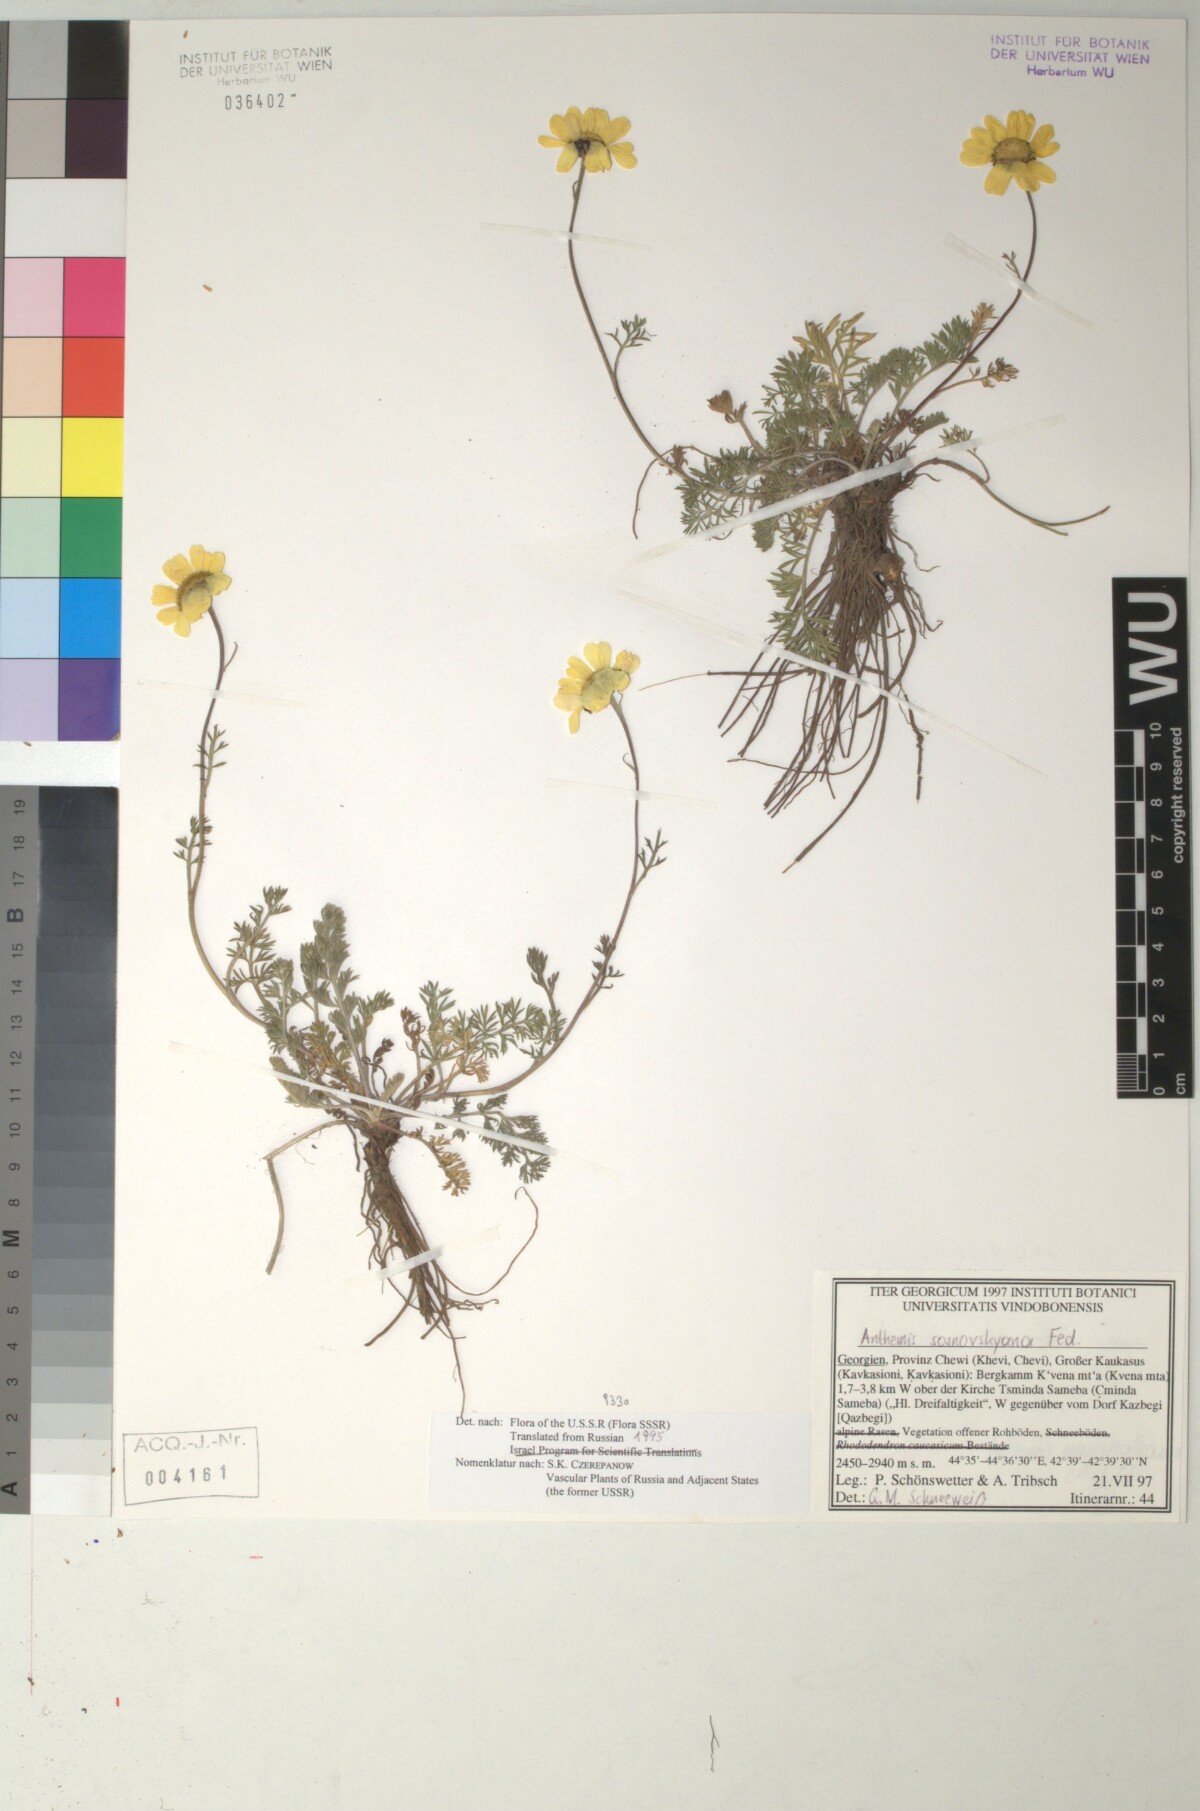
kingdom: Plantae
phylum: Tracheophyta
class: Magnoliopsida
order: Asterales
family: Asteraceae
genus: Archanthemis
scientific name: Archanthemis marschalliana
